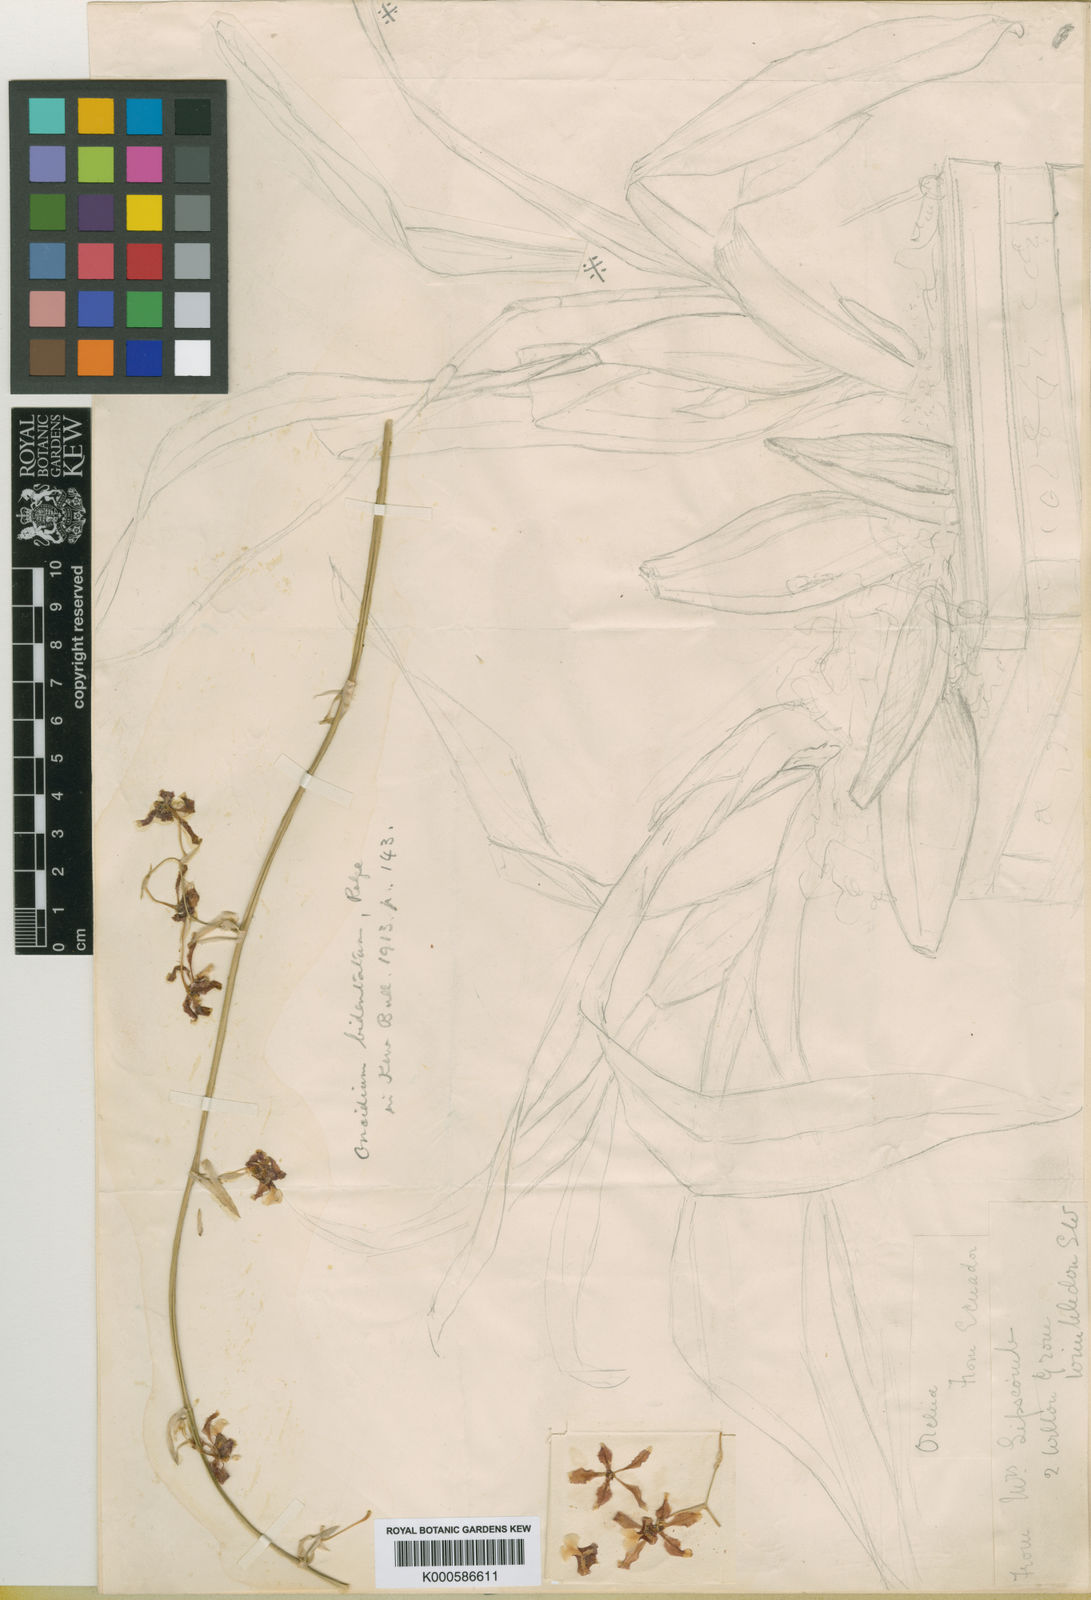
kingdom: Plantae
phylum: Tracheophyta
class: Liliopsida
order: Asparagales
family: Orchidaceae
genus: Oncidium
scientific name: Oncidium planilabre
